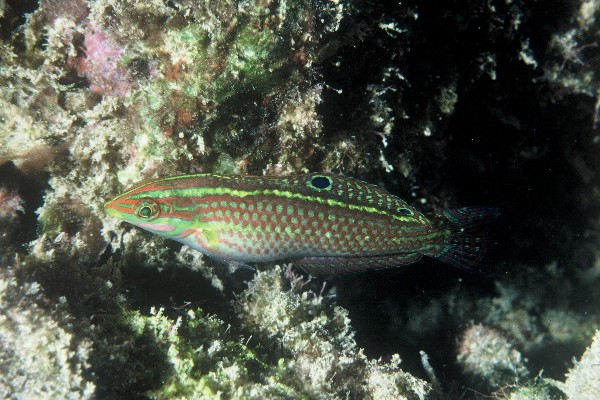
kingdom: Animalia
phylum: Chordata
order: Perciformes
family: Labridae
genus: Halichoeres
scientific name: Halichoeres ornatissimus
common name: Ornamented wrasse
